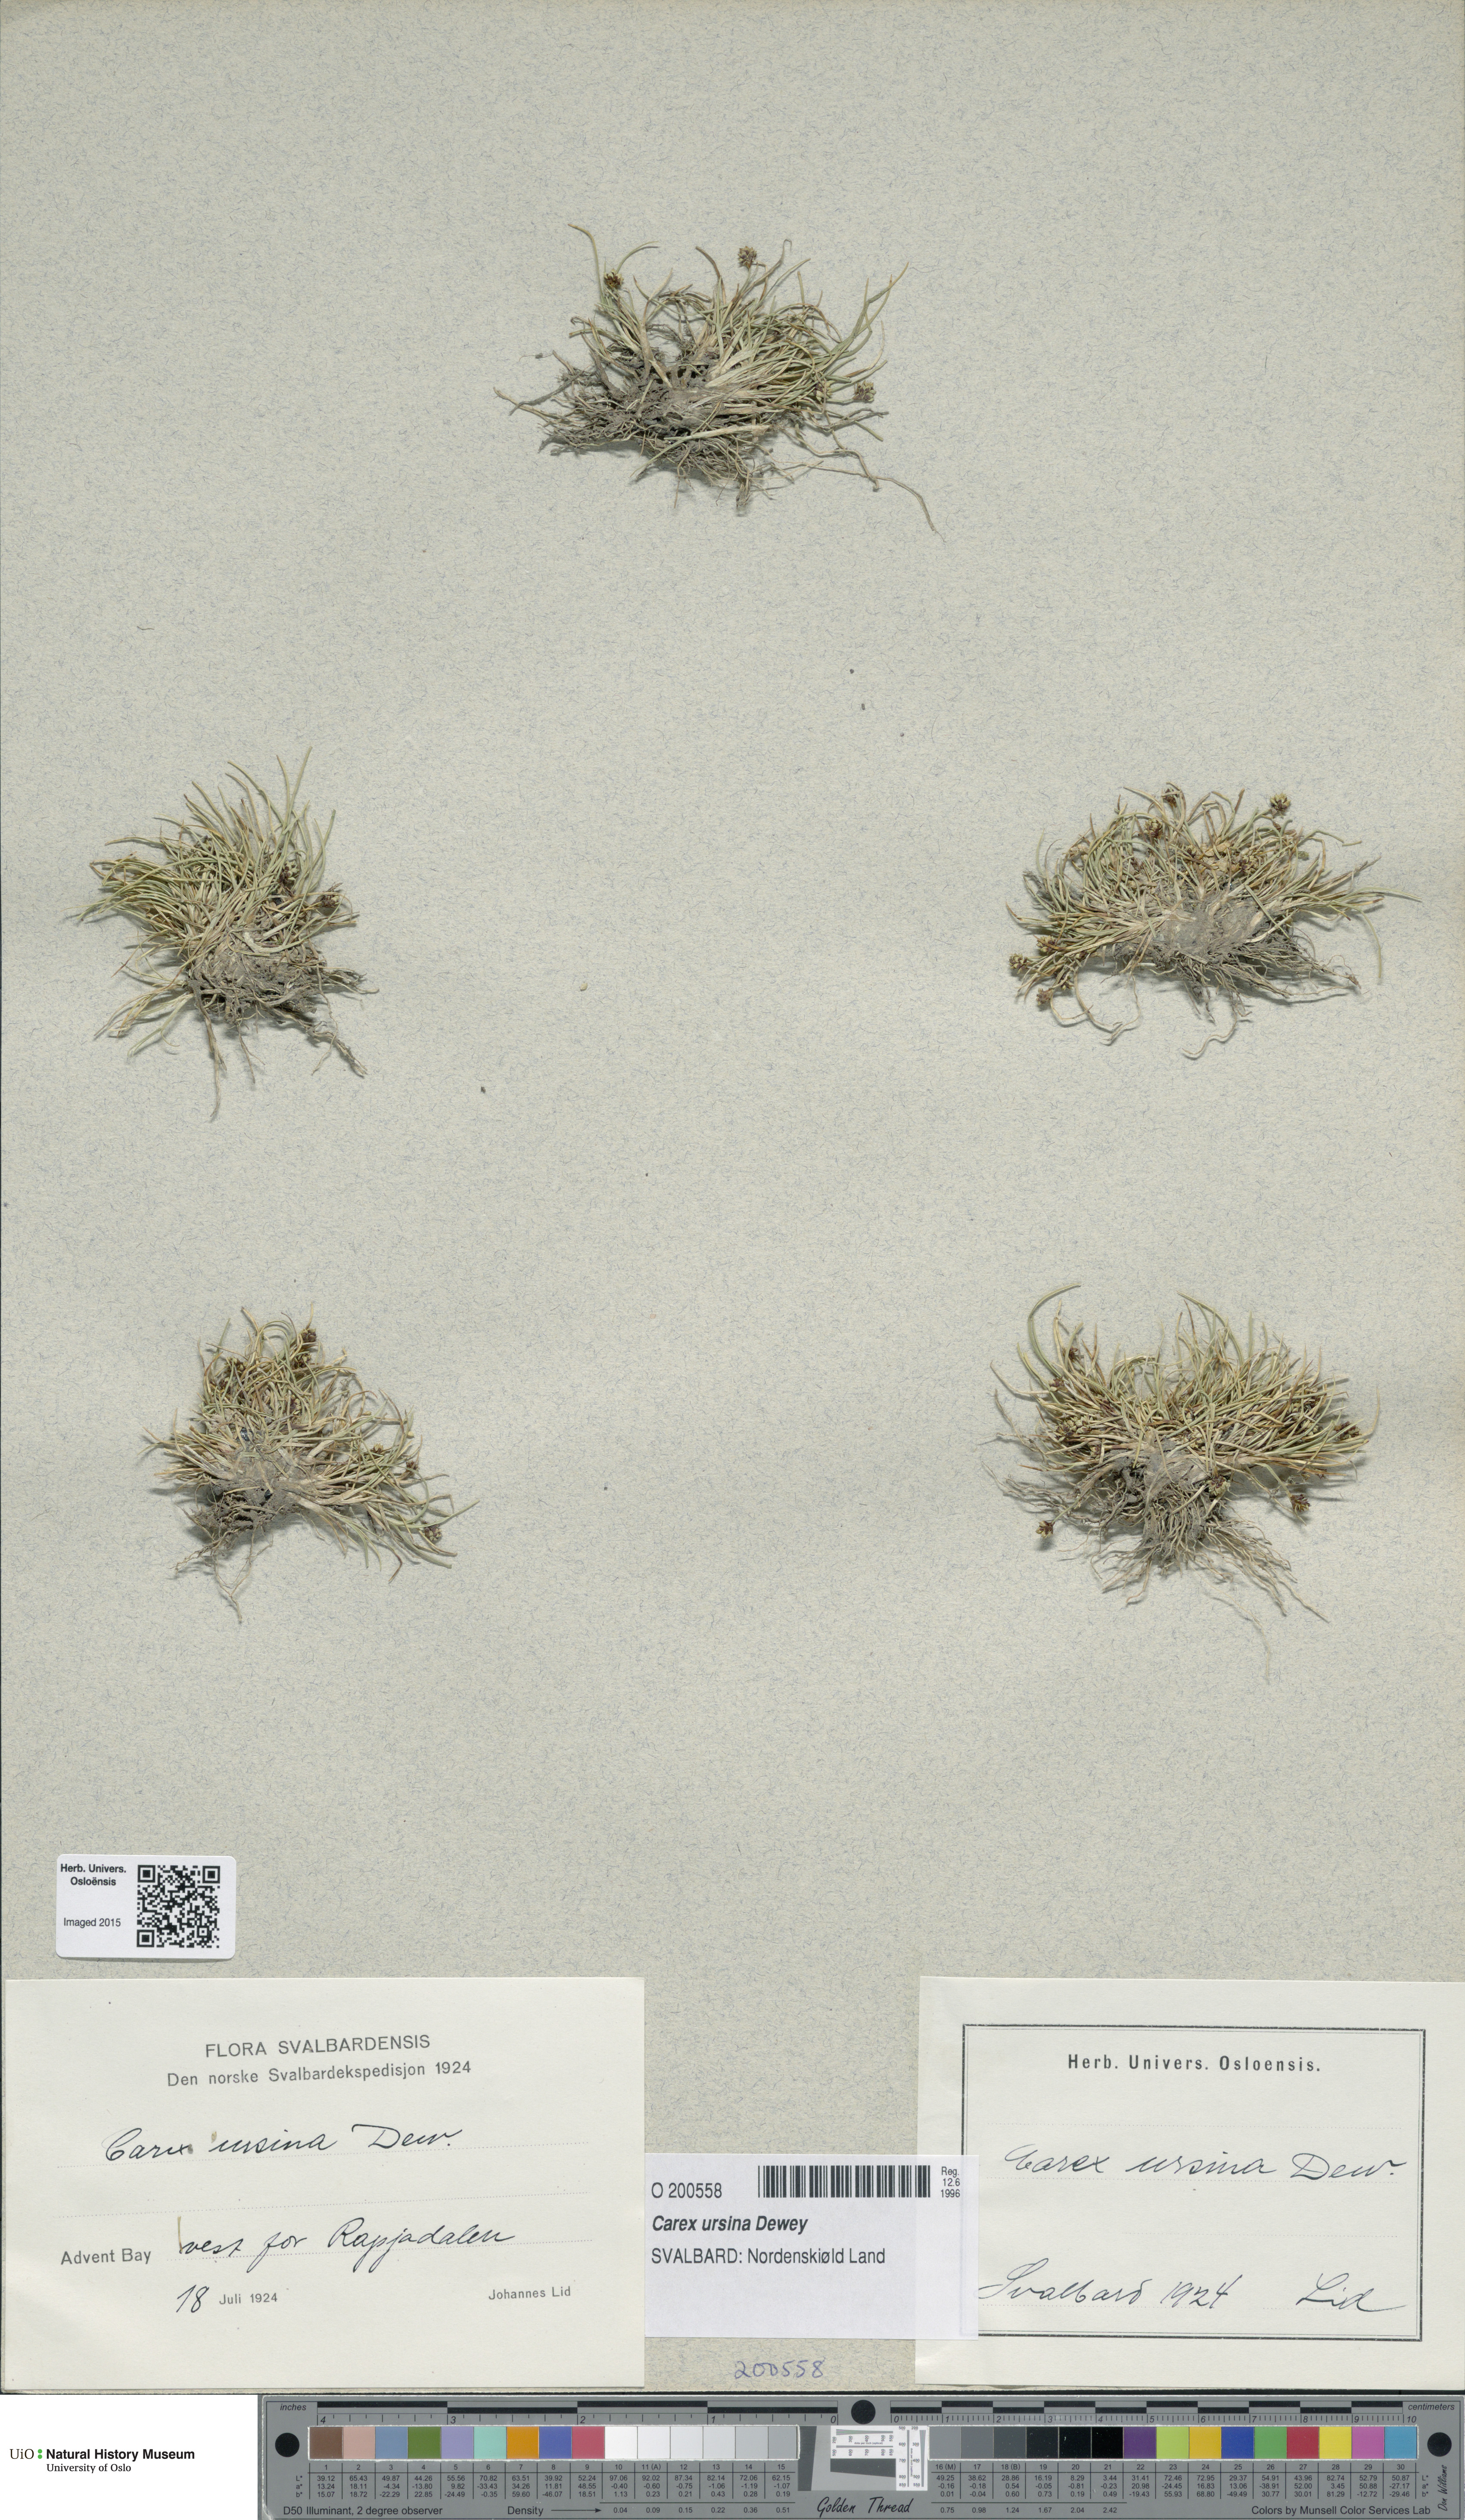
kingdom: Plantae
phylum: Tracheophyta
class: Liliopsida
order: Poales
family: Cyperaceae
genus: Carex
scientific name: Carex ursina
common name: Bear sedge
